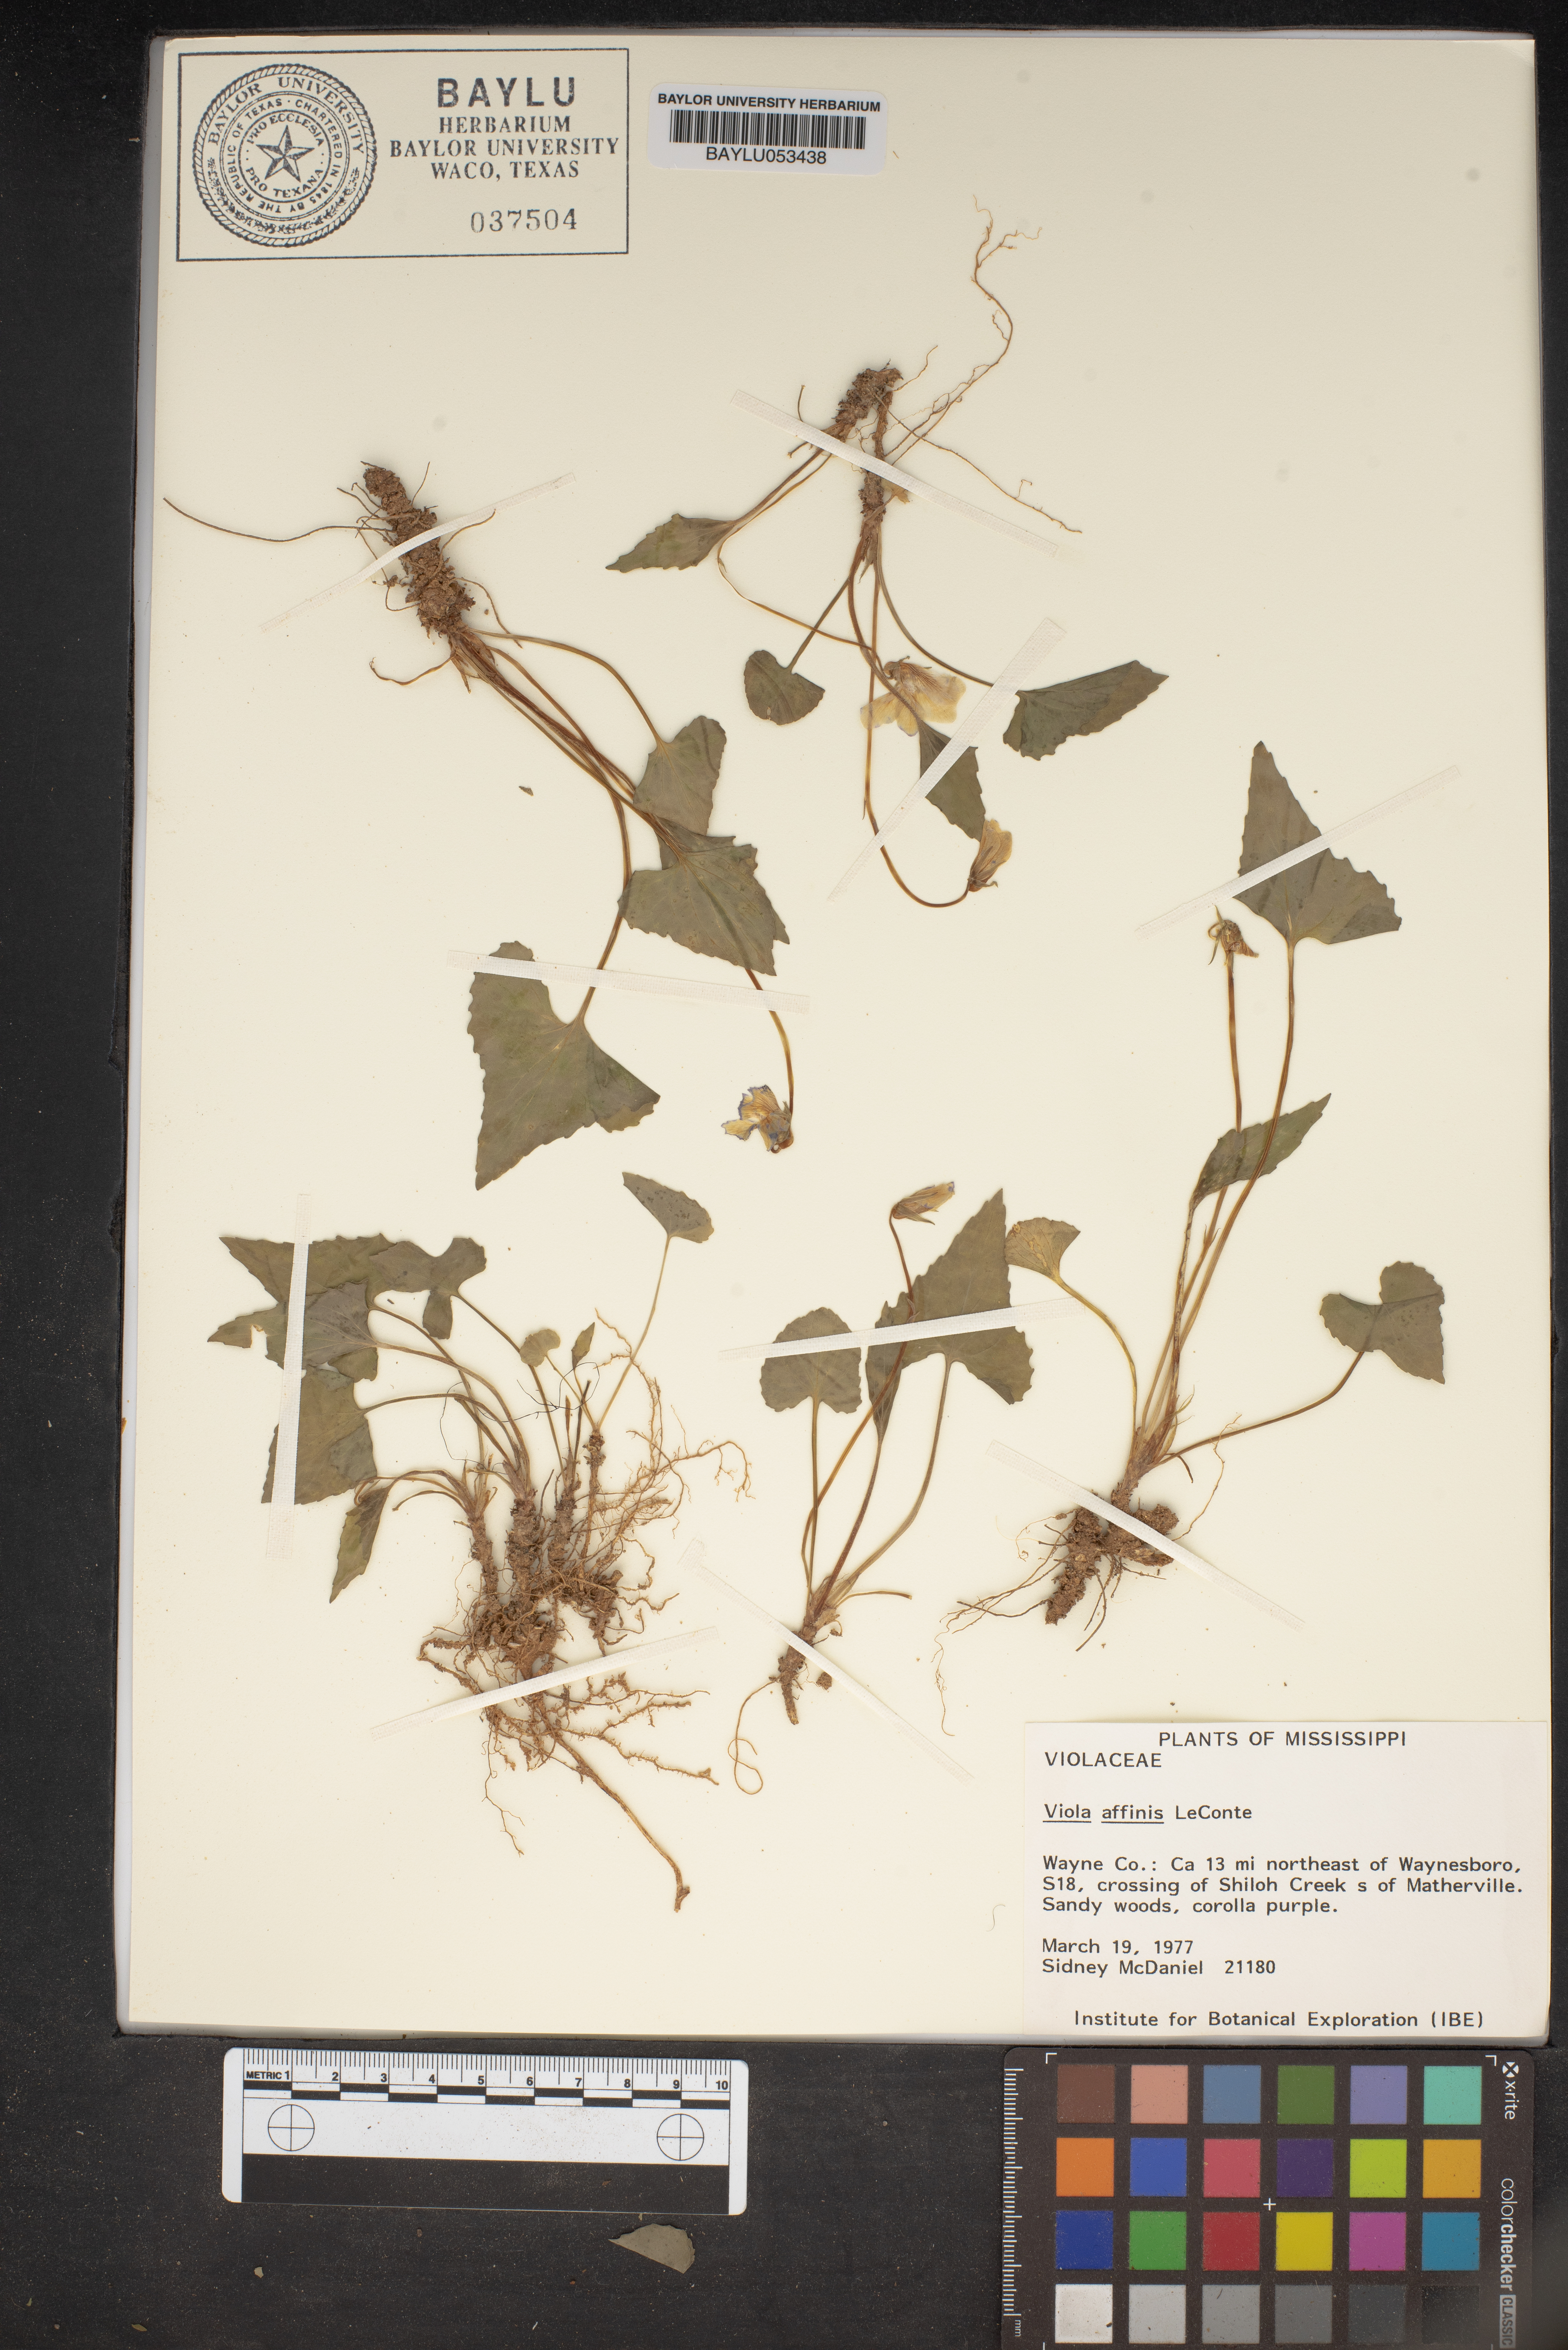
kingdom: Plantae
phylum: Tracheophyta
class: Magnoliopsida
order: Malpighiales
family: Violaceae
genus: Viola
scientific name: Viola affinis
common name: Leconte's violet
